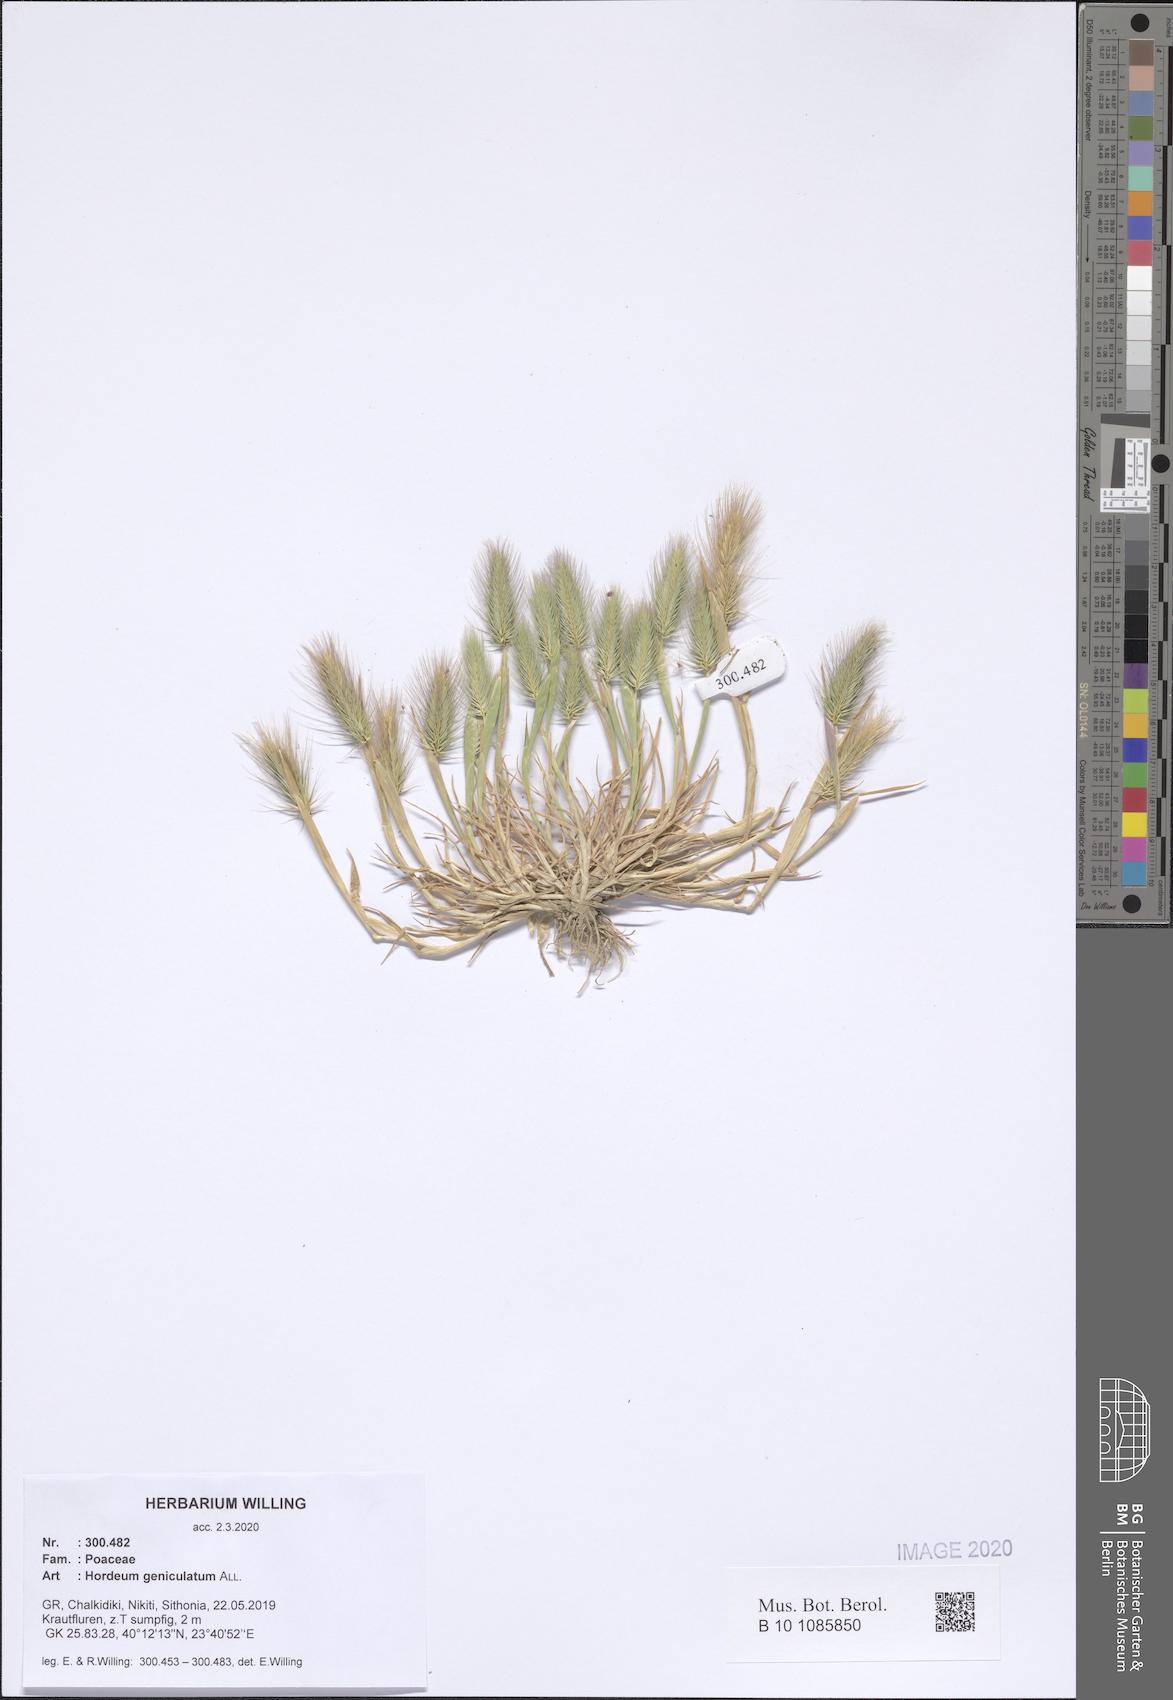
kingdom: Plantae
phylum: Tracheophyta
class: Liliopsida
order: Poales
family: Poaceae
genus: Hordeum
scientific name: Hordeum marinum
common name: Sea barley
